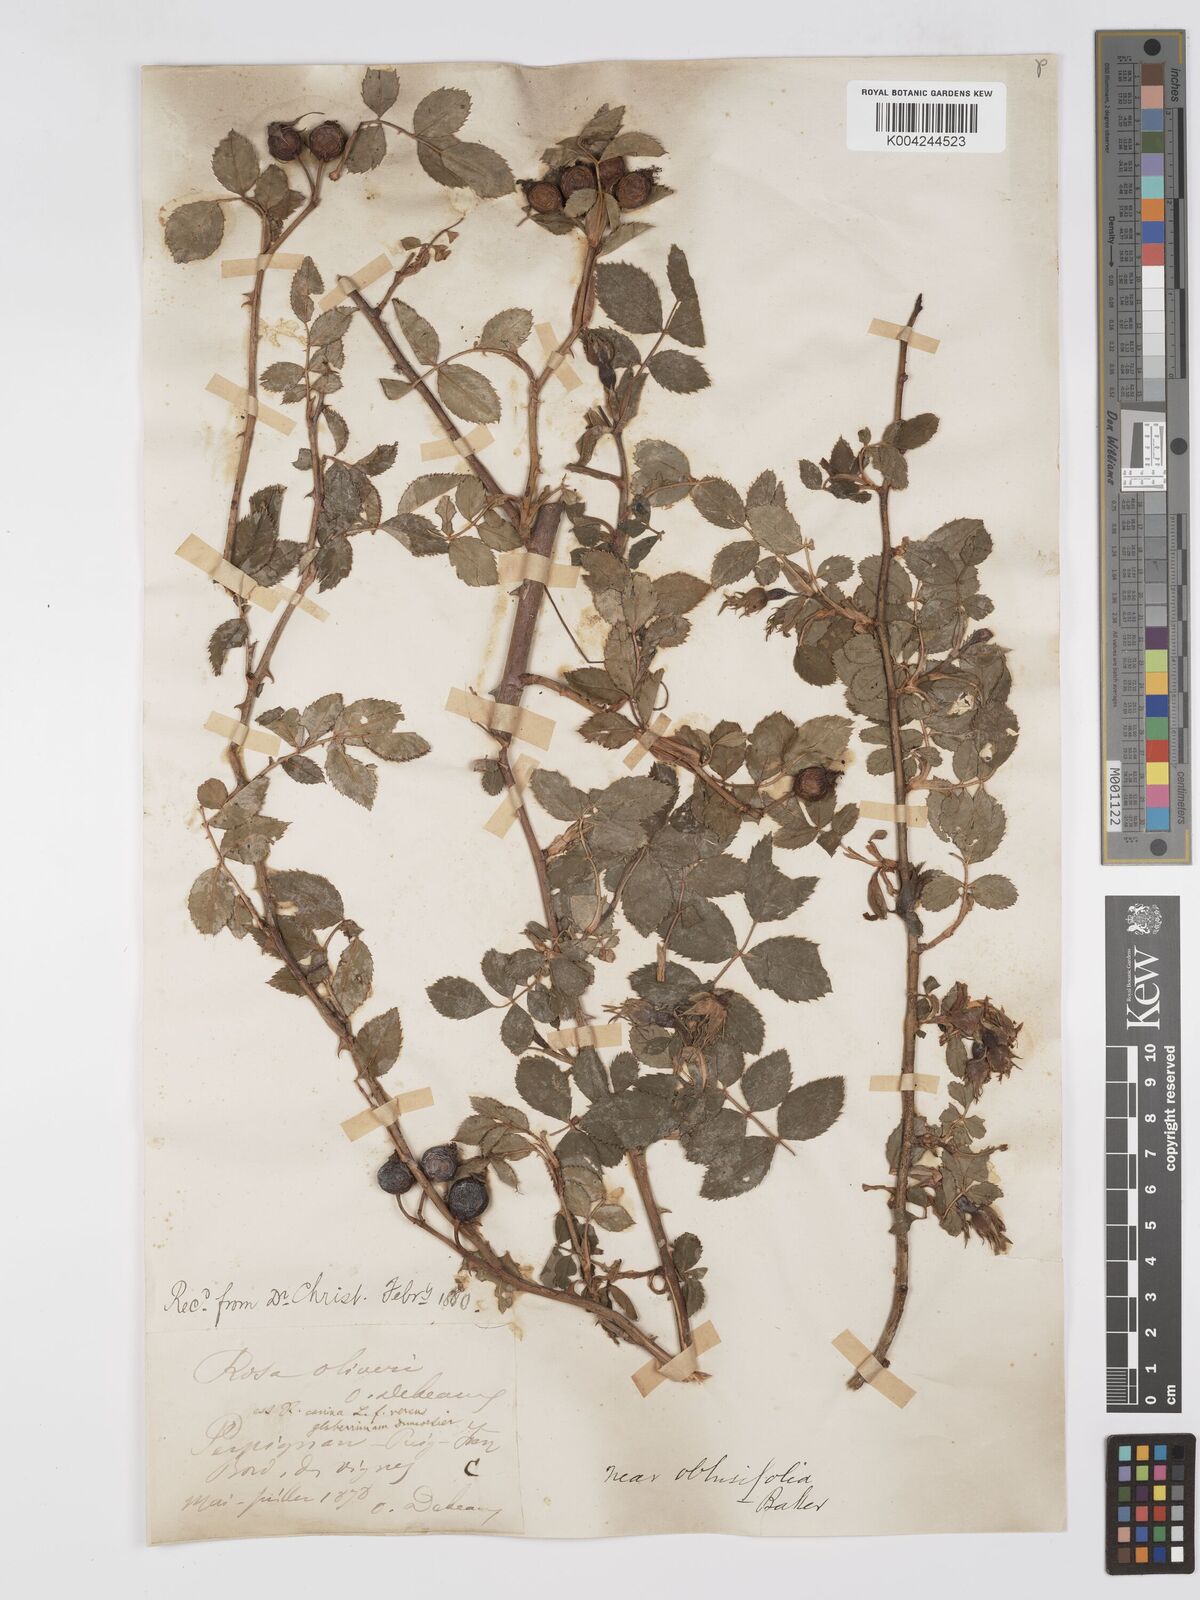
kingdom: Plantae
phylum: Tracheophyta
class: Magnoliopsida
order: Rosales
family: Rosaceae
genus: Rosa
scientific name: Rosa obtusifolia
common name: Round-leaved dog-rose
